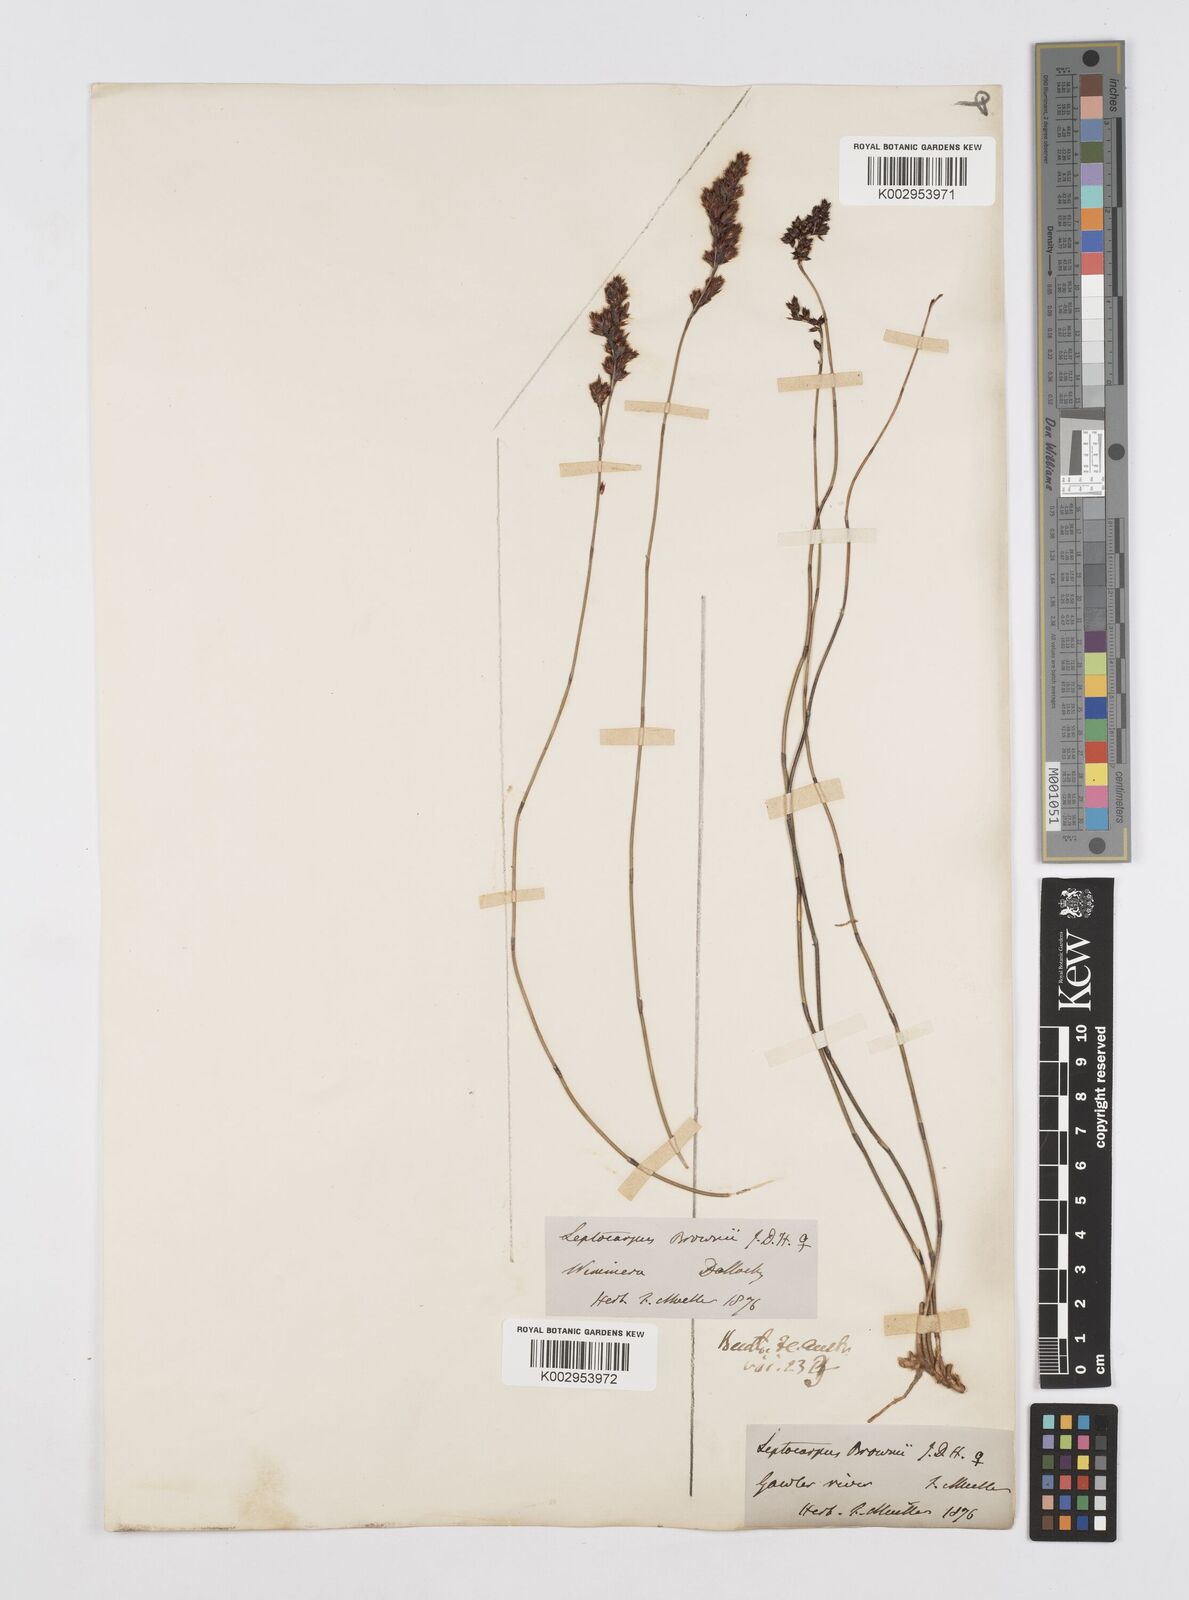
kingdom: Plantae
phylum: Tracheophyta
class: Liliopsida
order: Poales
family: Restionaceae
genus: Apodasmia
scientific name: Apodasmia brownii
